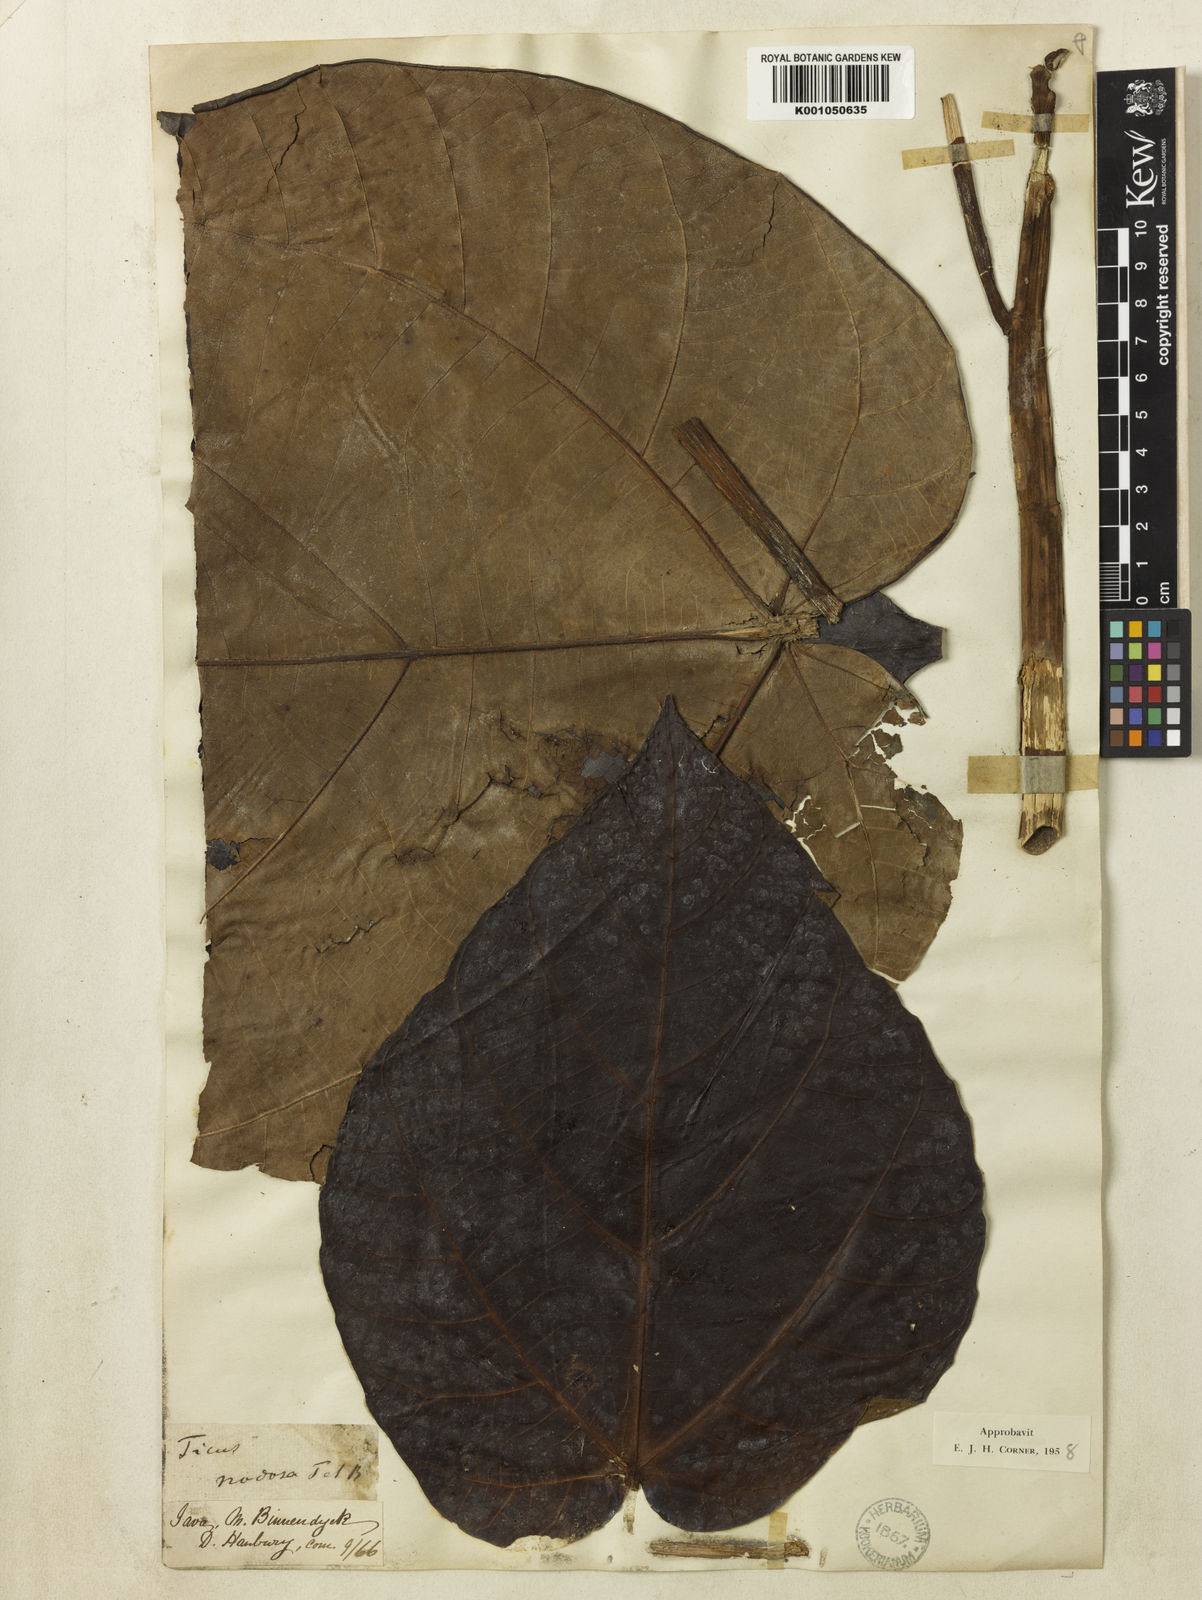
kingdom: Plantae
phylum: Tracheophyta
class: Magnoliopsida
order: Rosales
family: Moraceae
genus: Ficus
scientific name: Ficus racemifera
